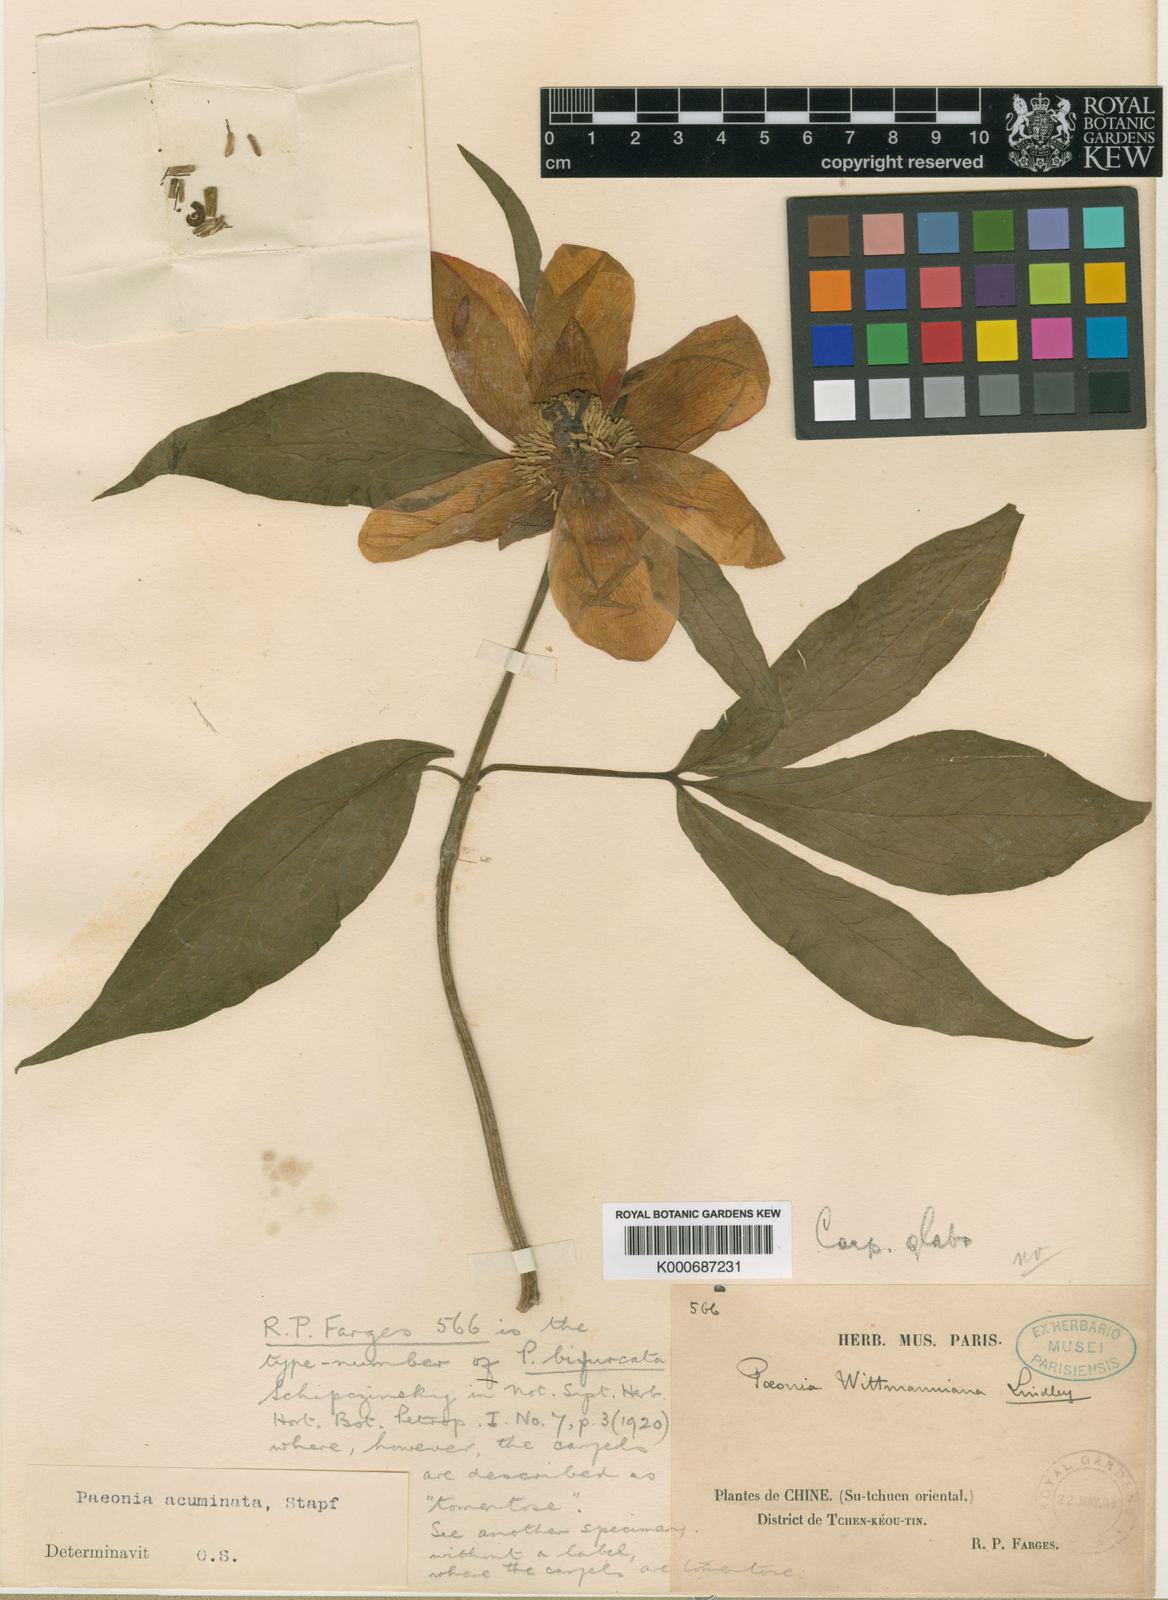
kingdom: Plantae
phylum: Tracheophyta
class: Magnoliopsida
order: Saxifragales
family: Paeoniaceae
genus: Paeonia
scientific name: Paeonia
